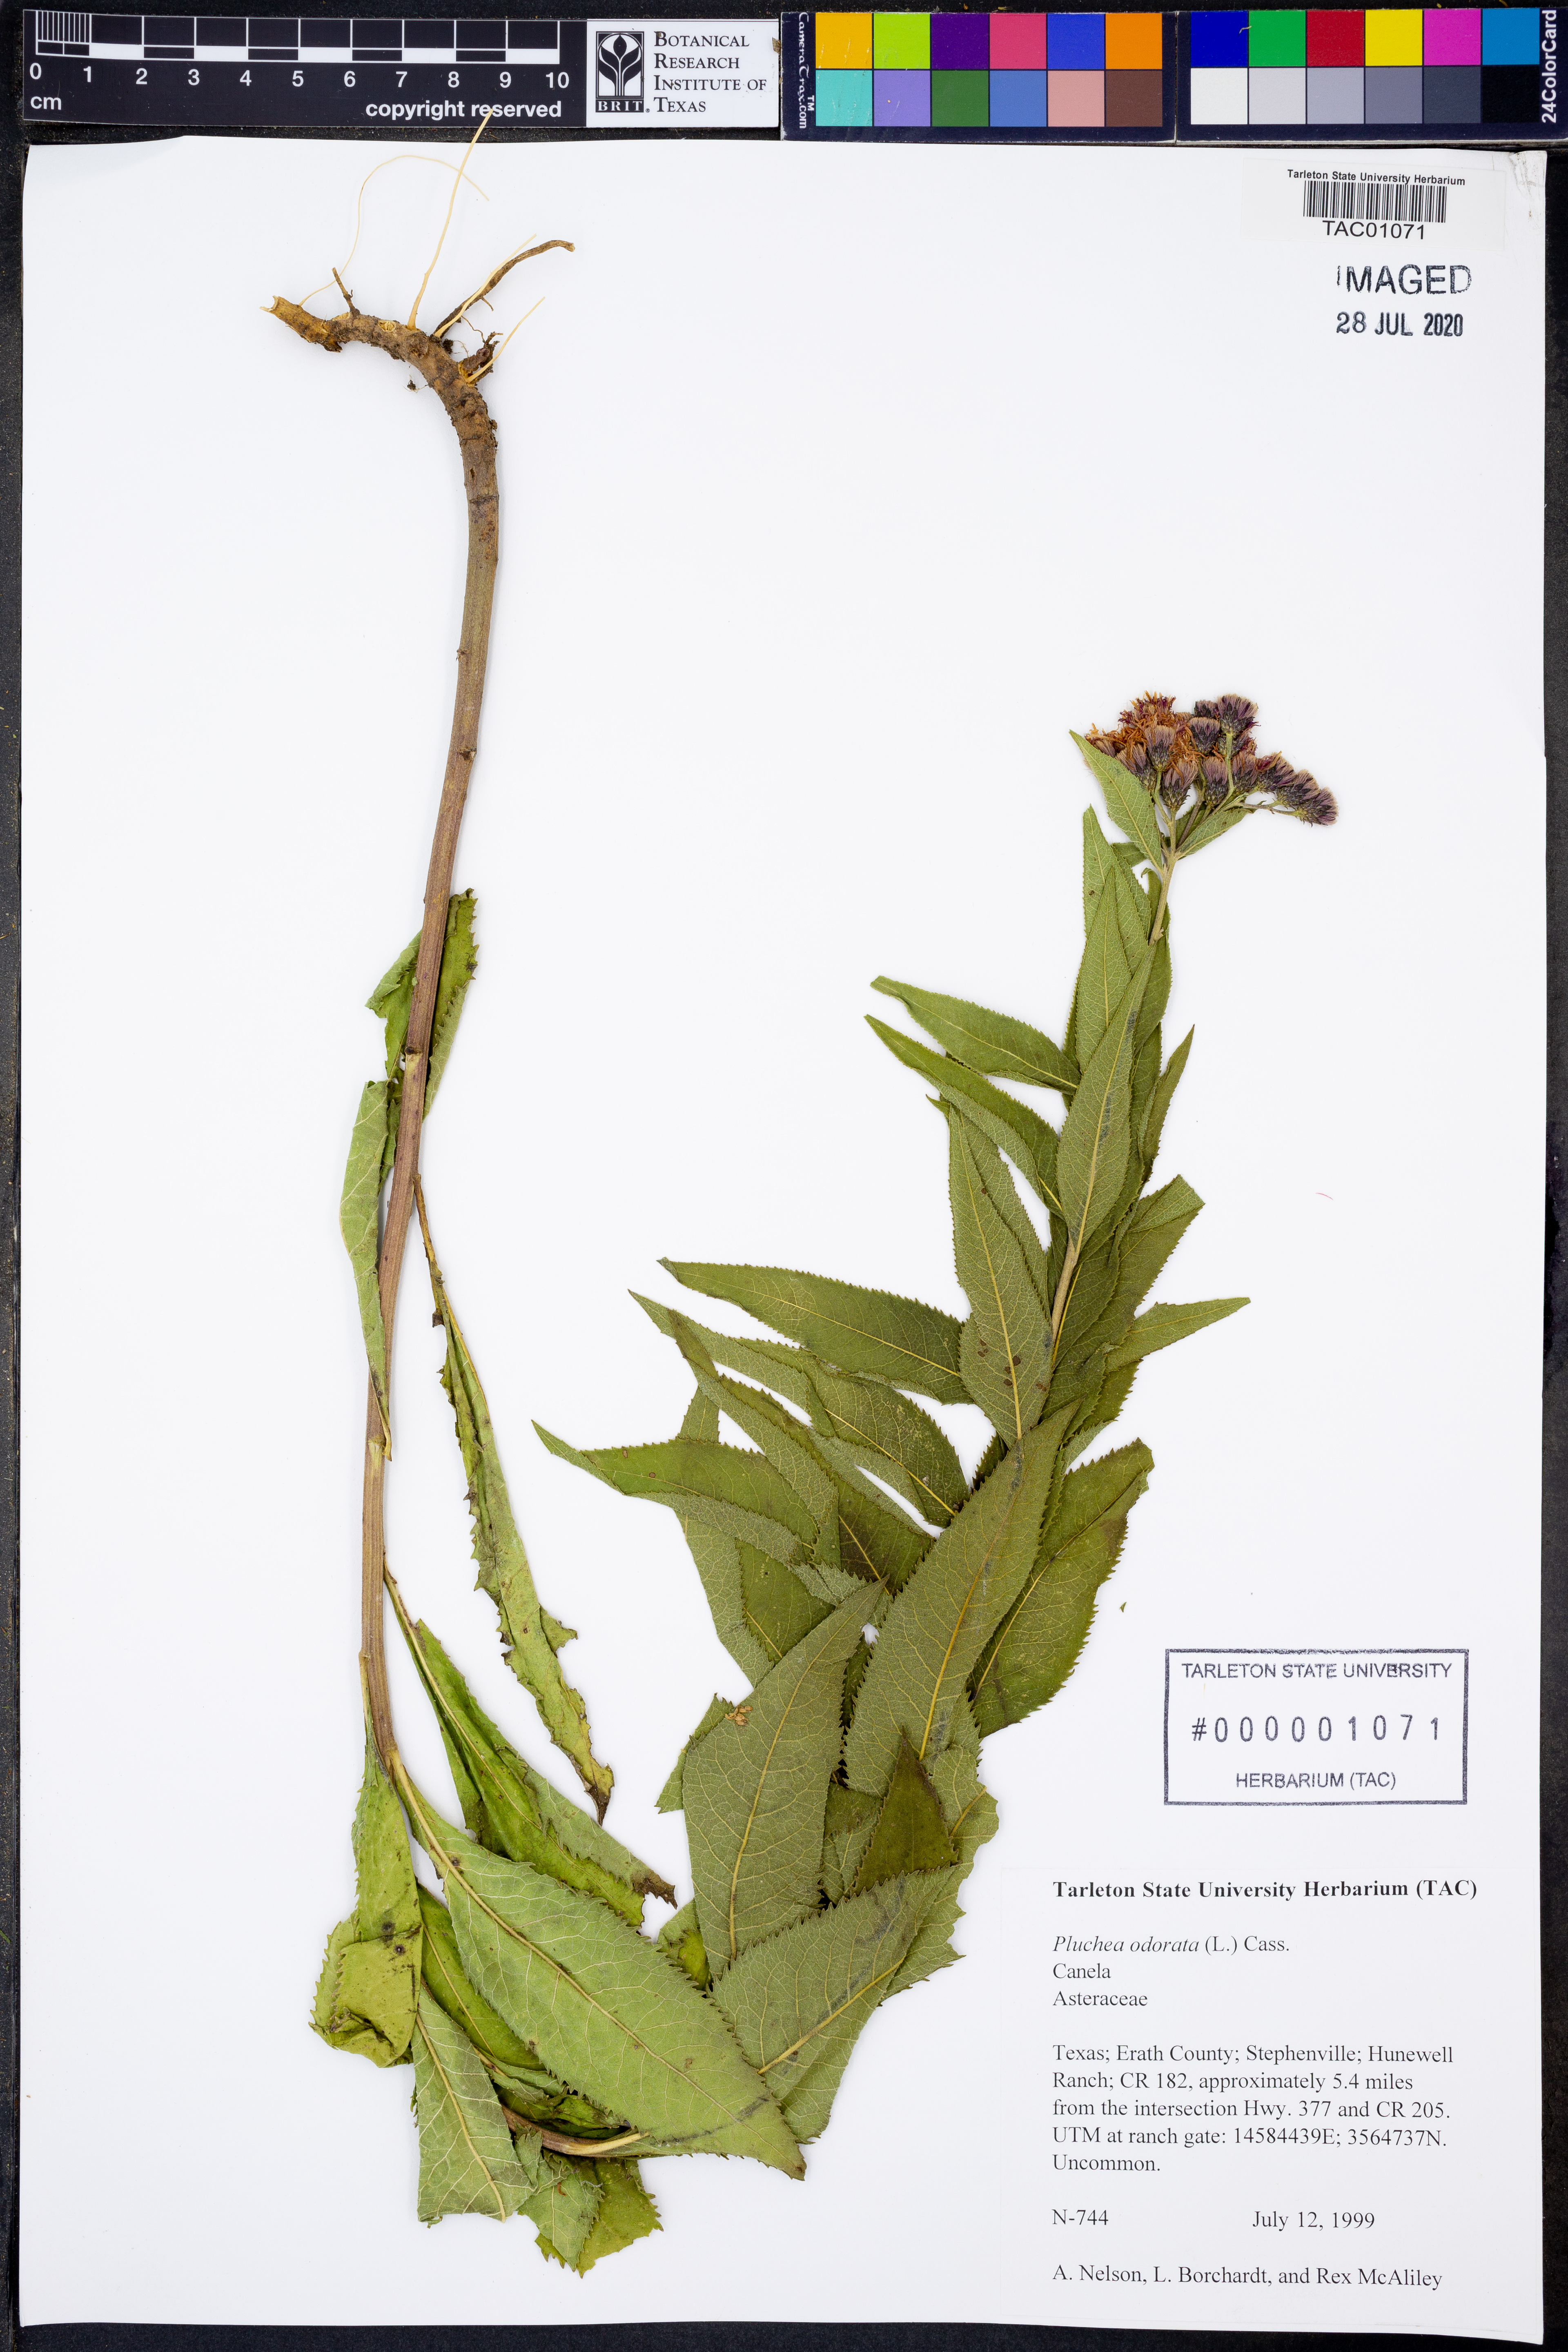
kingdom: Plantae
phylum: Tracheophyta
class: Magnoliopsida
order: Asterales
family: Asteraceae
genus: Pluchea
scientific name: Pluchea odorata
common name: Saltmarsh fleabane
